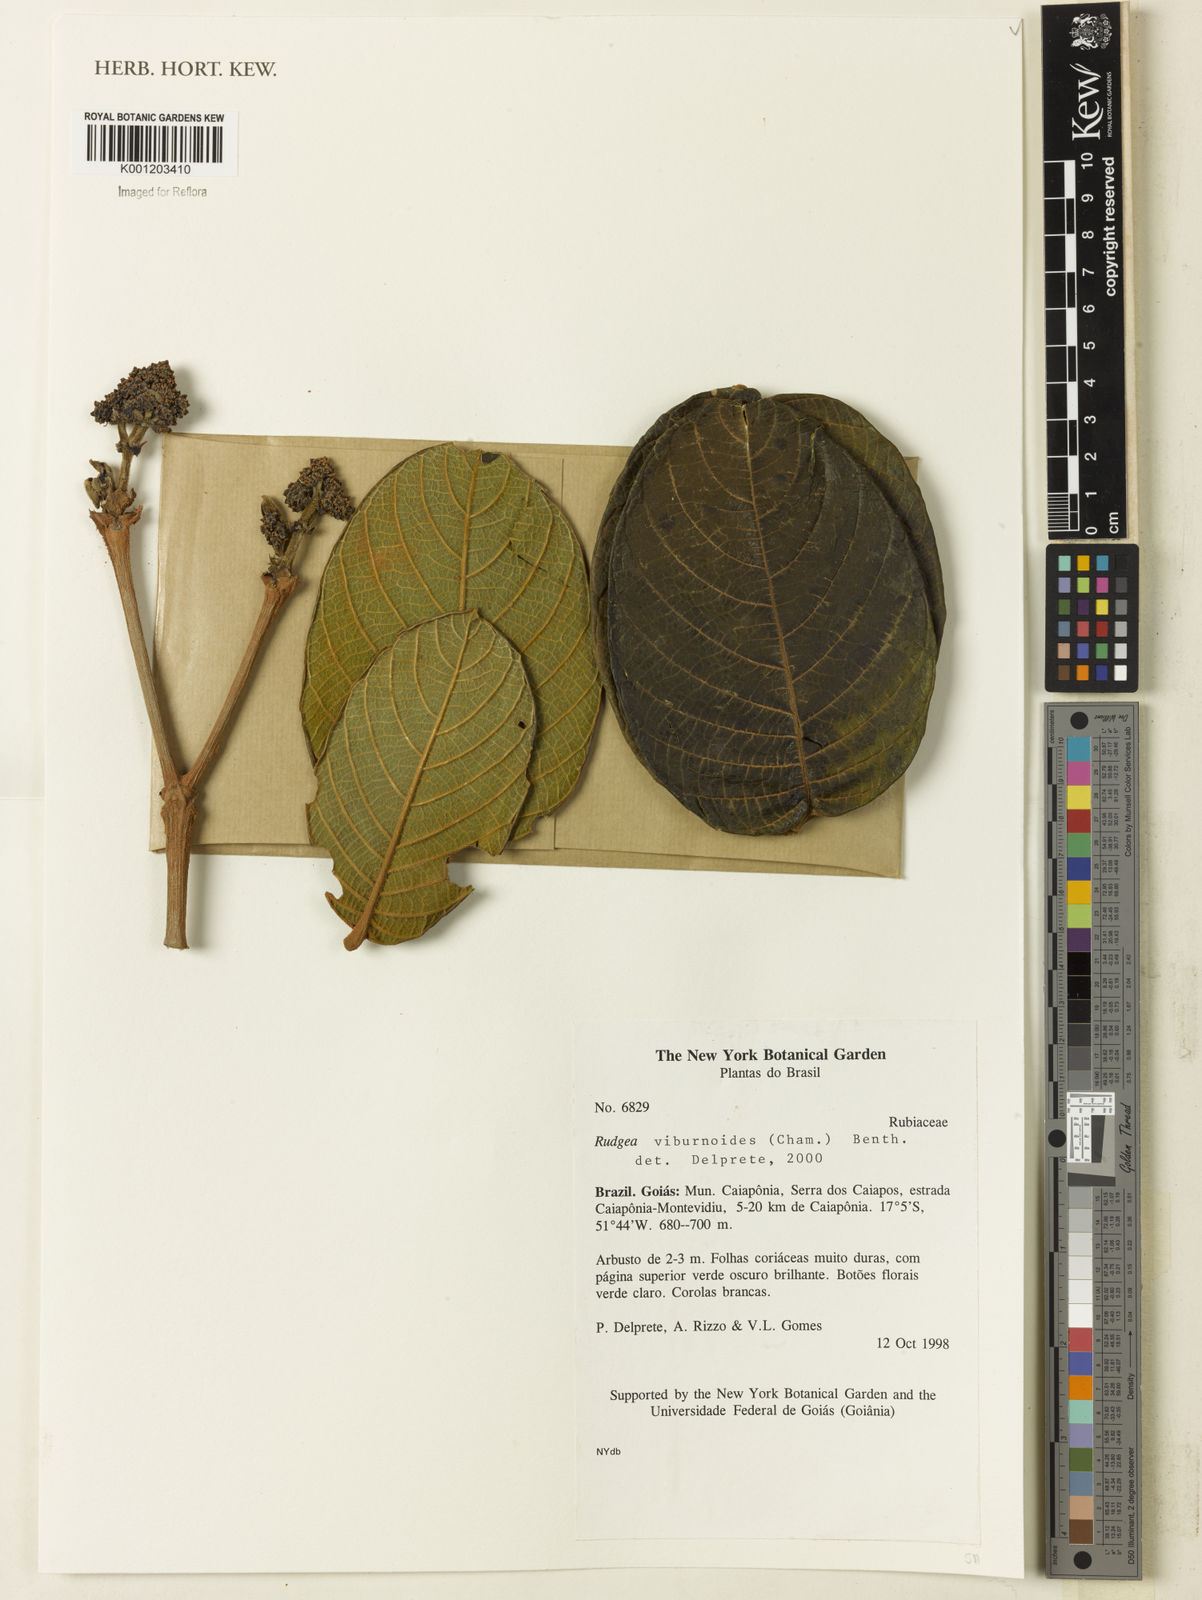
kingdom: Plantae
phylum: Tracheophyta
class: Magnoliopsida
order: Gentianales
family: Rubiaceae
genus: Rudgea
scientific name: Rudgea viburnoides
